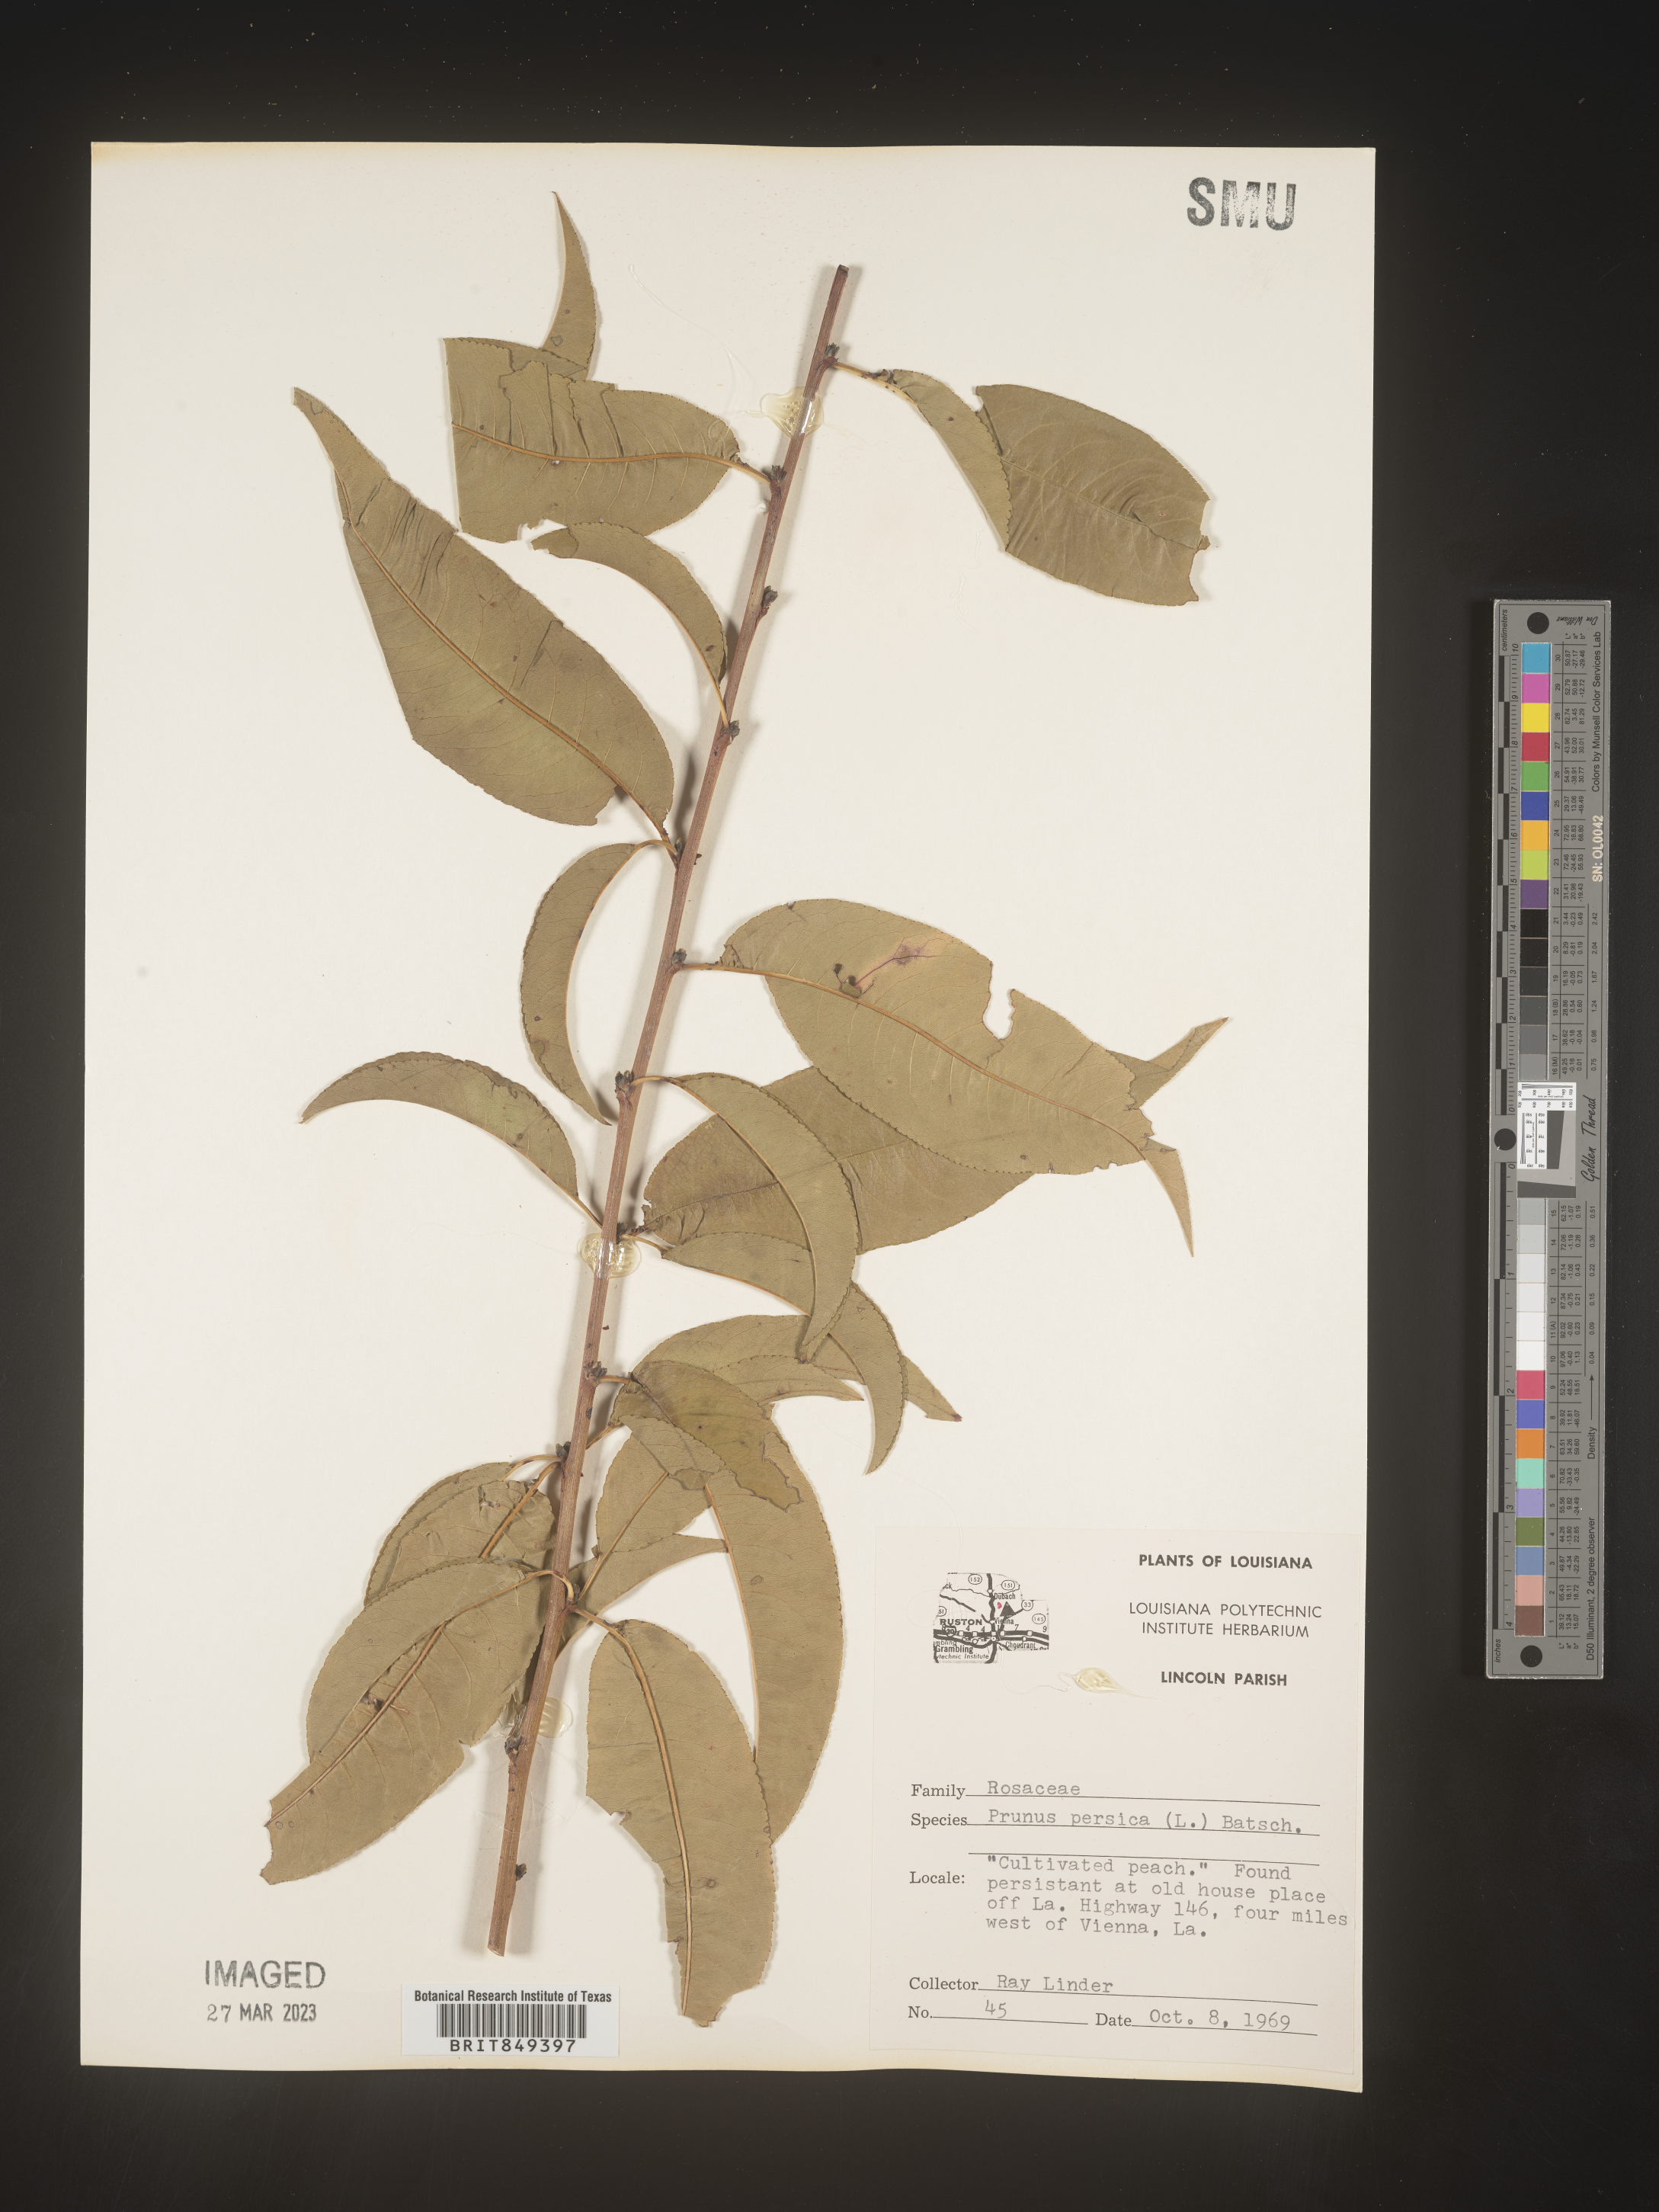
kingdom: Plantae
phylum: Tracheophyta
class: Magnoliopsida
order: Rosales
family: Rosaceae
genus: Prunus
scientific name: Prunus persica
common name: Peach
